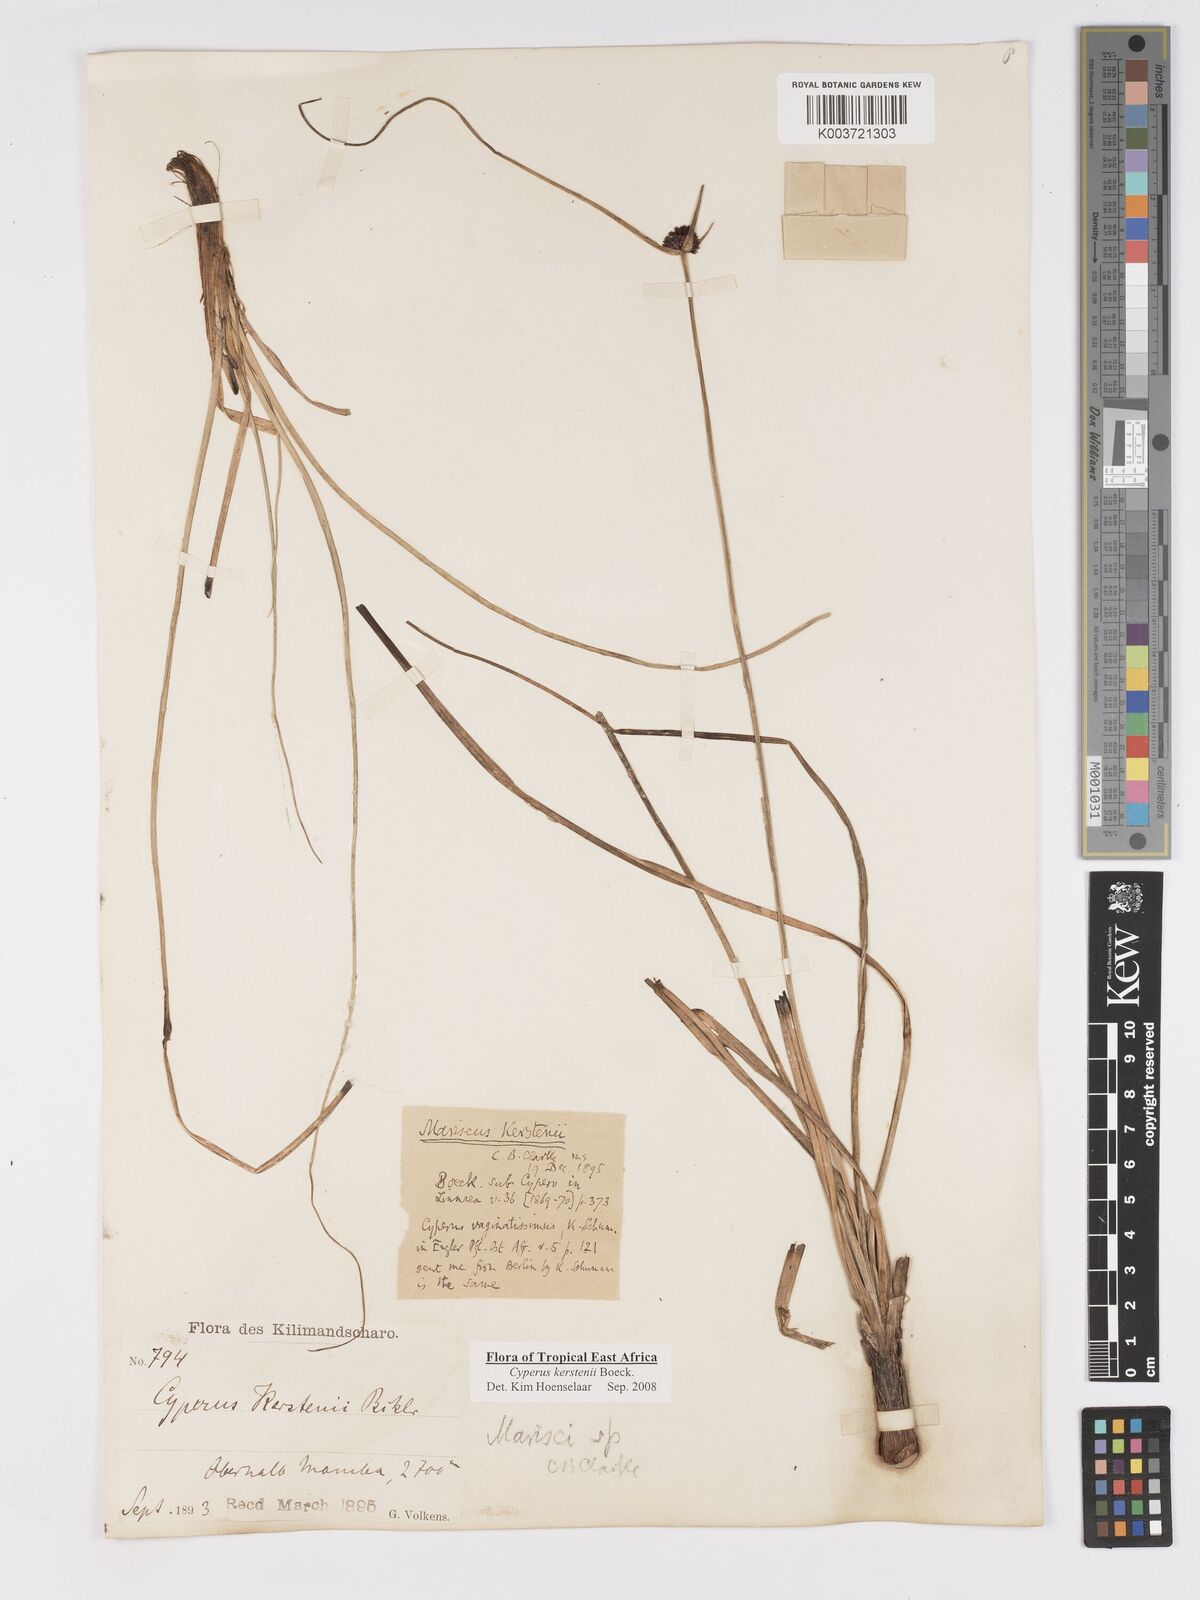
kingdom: Plantae
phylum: Tracheophyta
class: Liliopsida
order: Poales
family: Cyperaceae
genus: Cyperus
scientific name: Cyperus kerstenii
